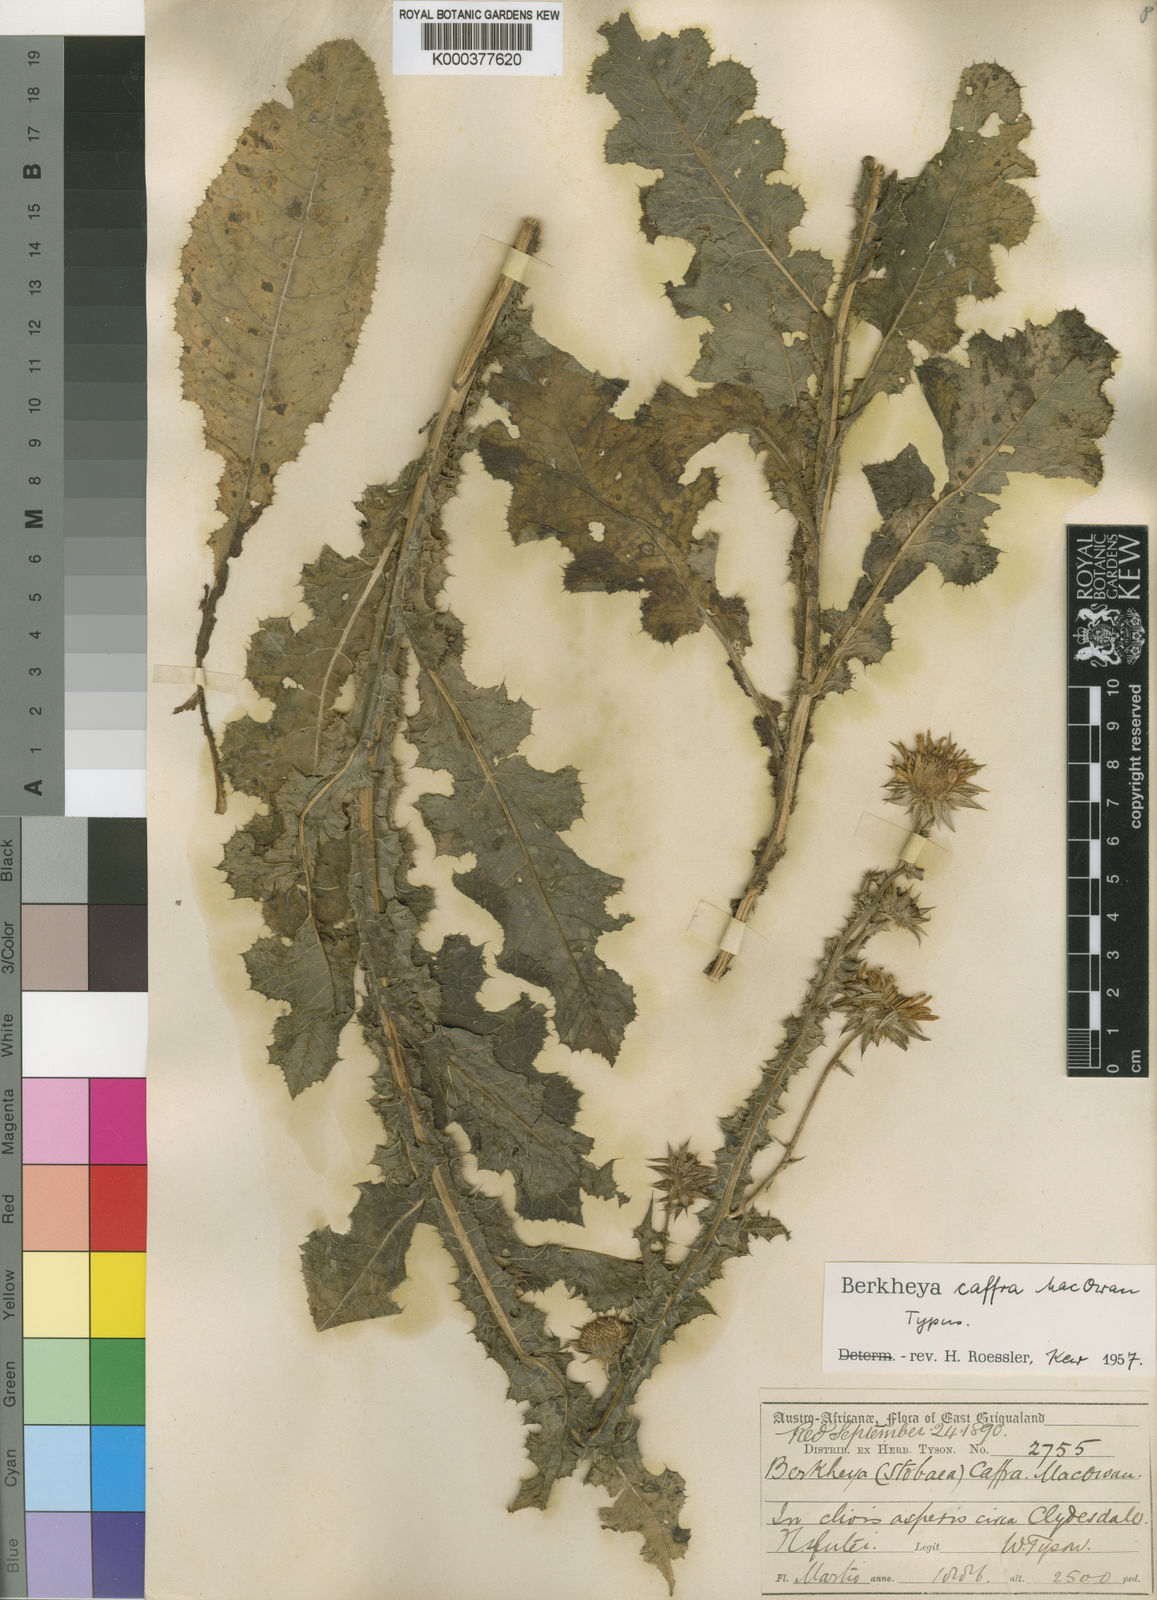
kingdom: Plantae
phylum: Tracheophyta
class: Magnoliopsida
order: Asterales
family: Asteraceae
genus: Berkheya
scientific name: Berkheya caffra
